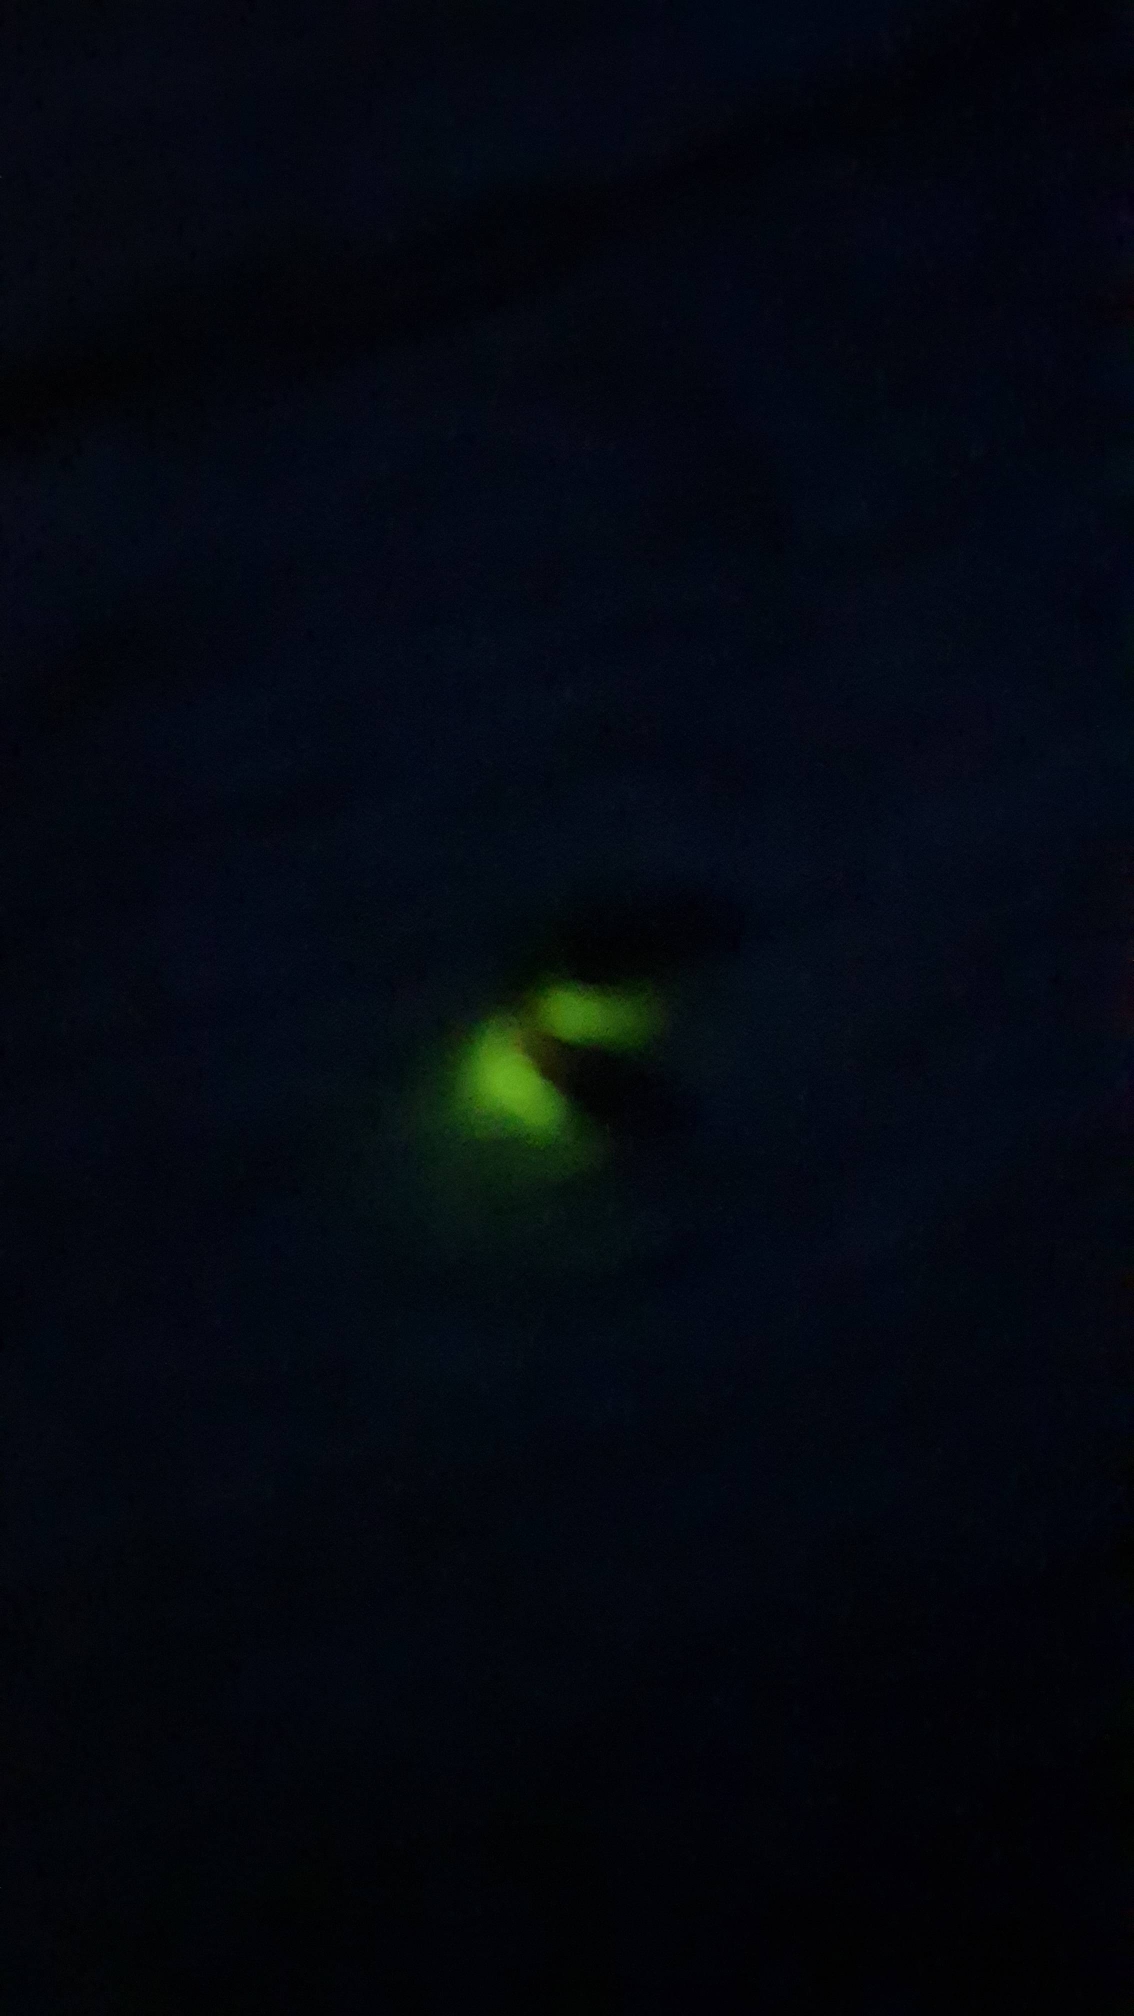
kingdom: Animalia
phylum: Arthropoda
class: Insecta
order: Coleoptera
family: Lampyridae
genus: Lampyris
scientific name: Lampyris noctiluca
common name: Sankthansorm
